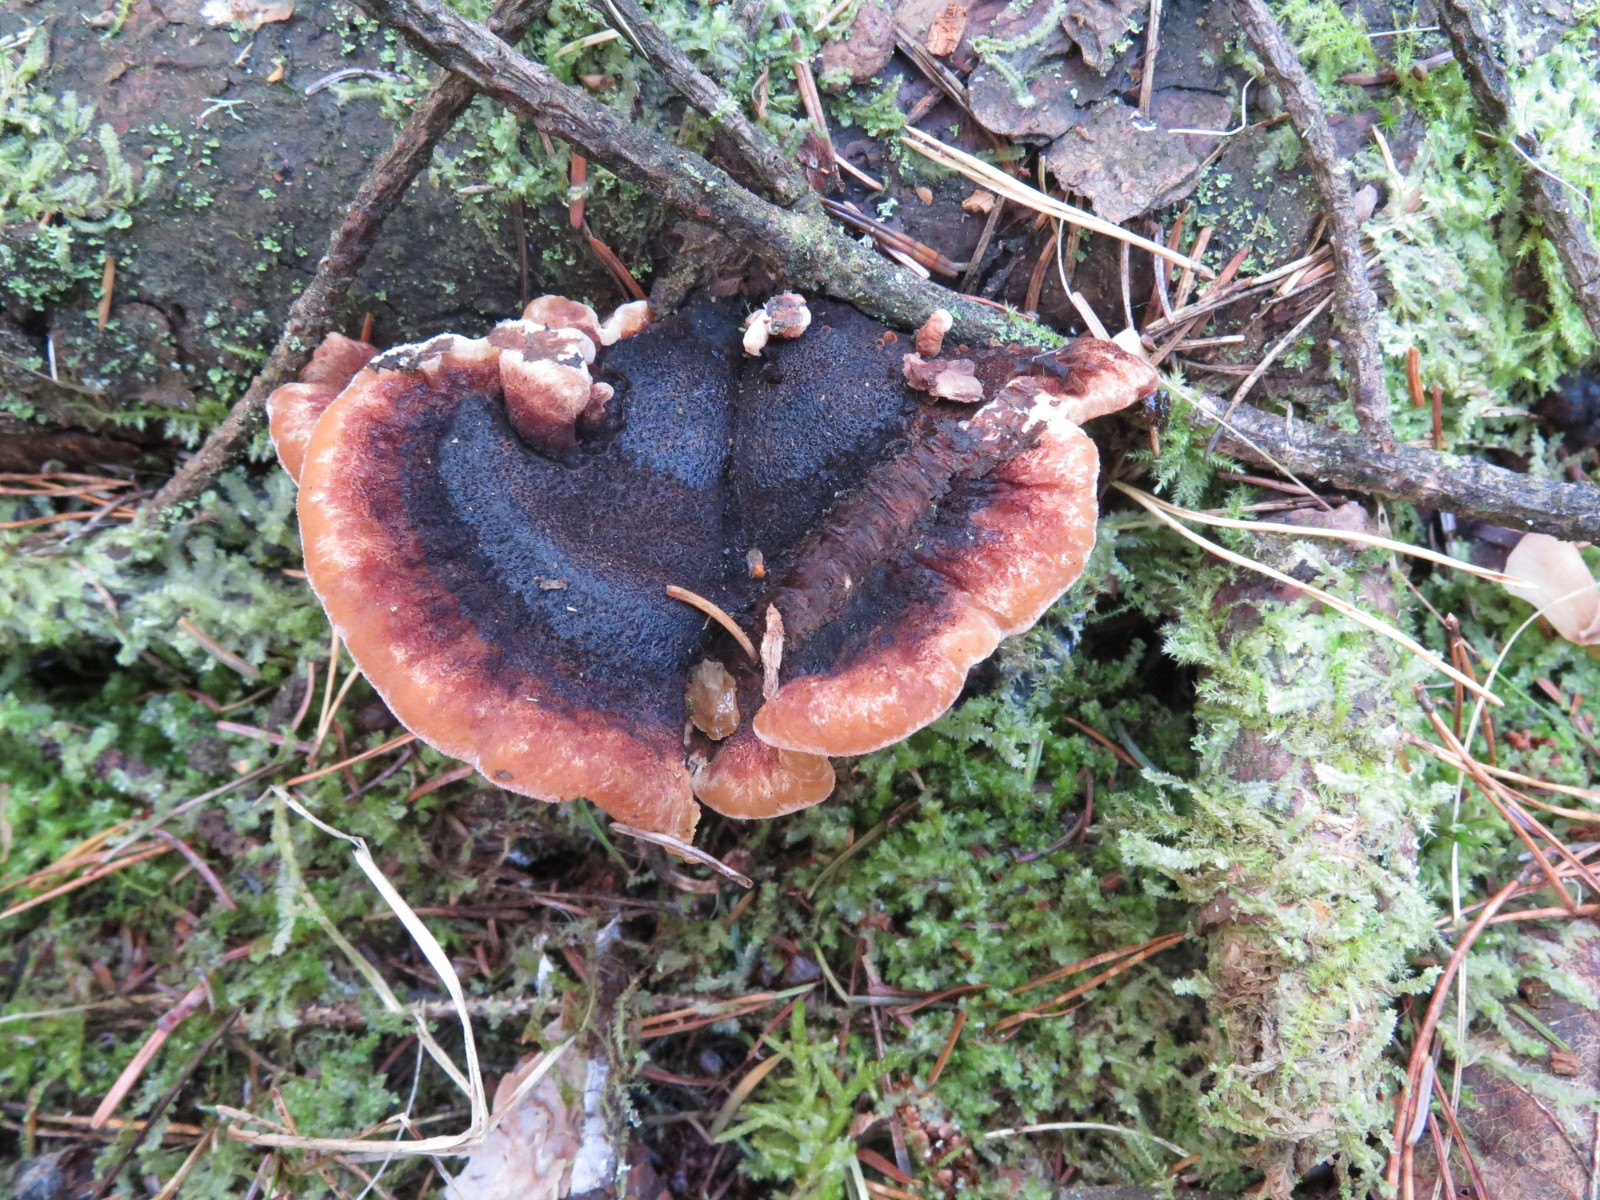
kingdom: Fungi
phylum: Basidiomycota
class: Agaricomycetes
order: Polyporales
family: Ischnodermataceae
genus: Ischnoderma
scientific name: Ischnoderma benzoinum
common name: gran-tjæreporesvamp
